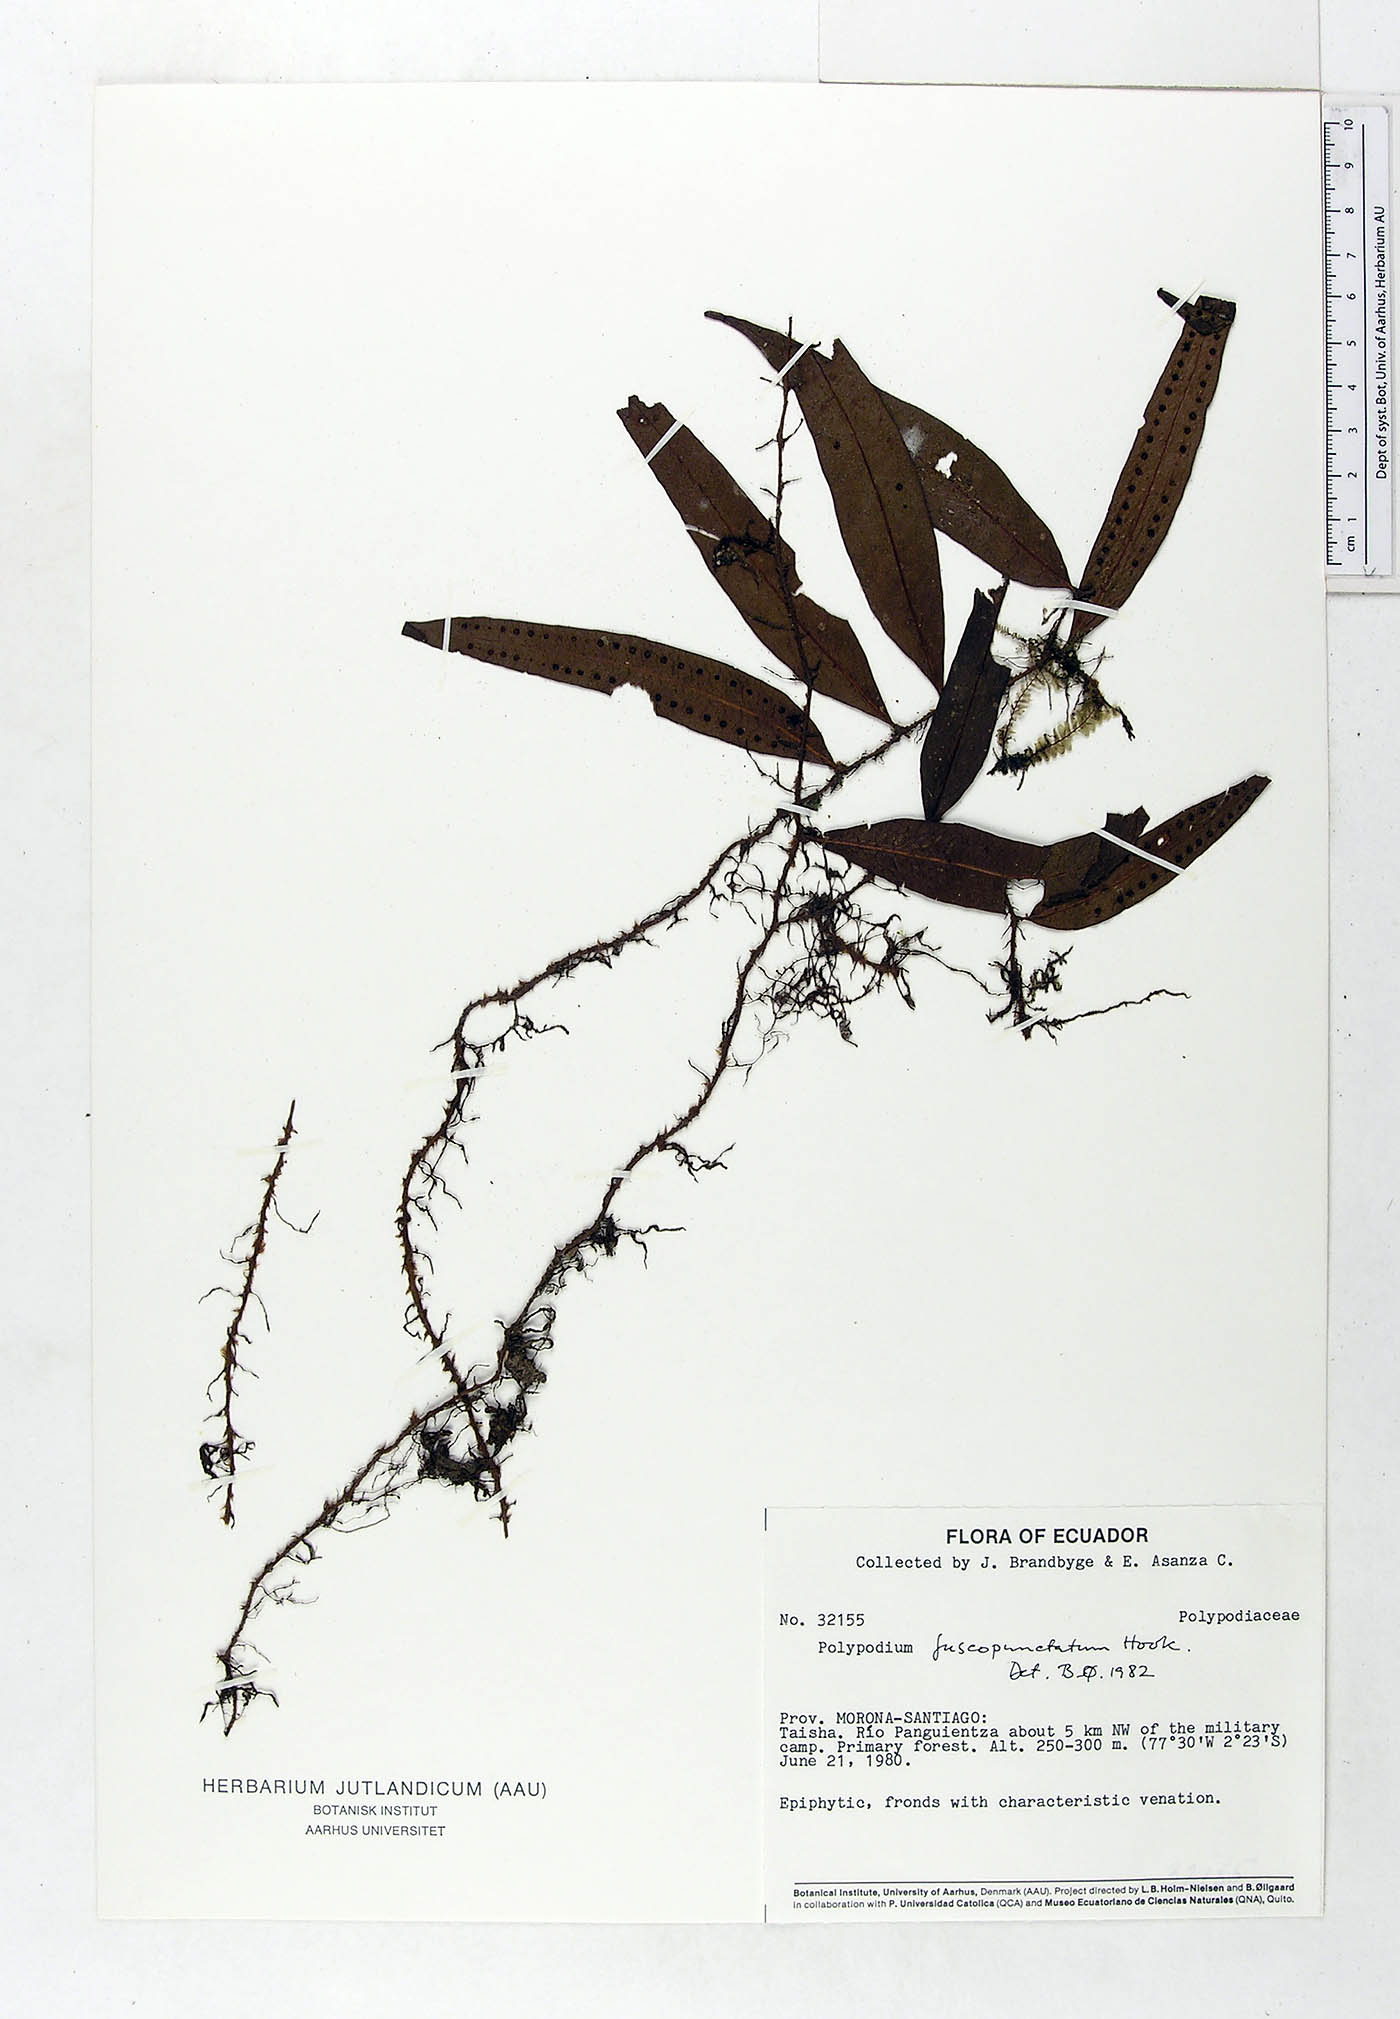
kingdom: Plantae
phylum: Tracheophyta
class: Polypodiopsida
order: Polypodiales
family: Polypodiaceae
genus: Microgramma
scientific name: Microgramma dictyophylla
